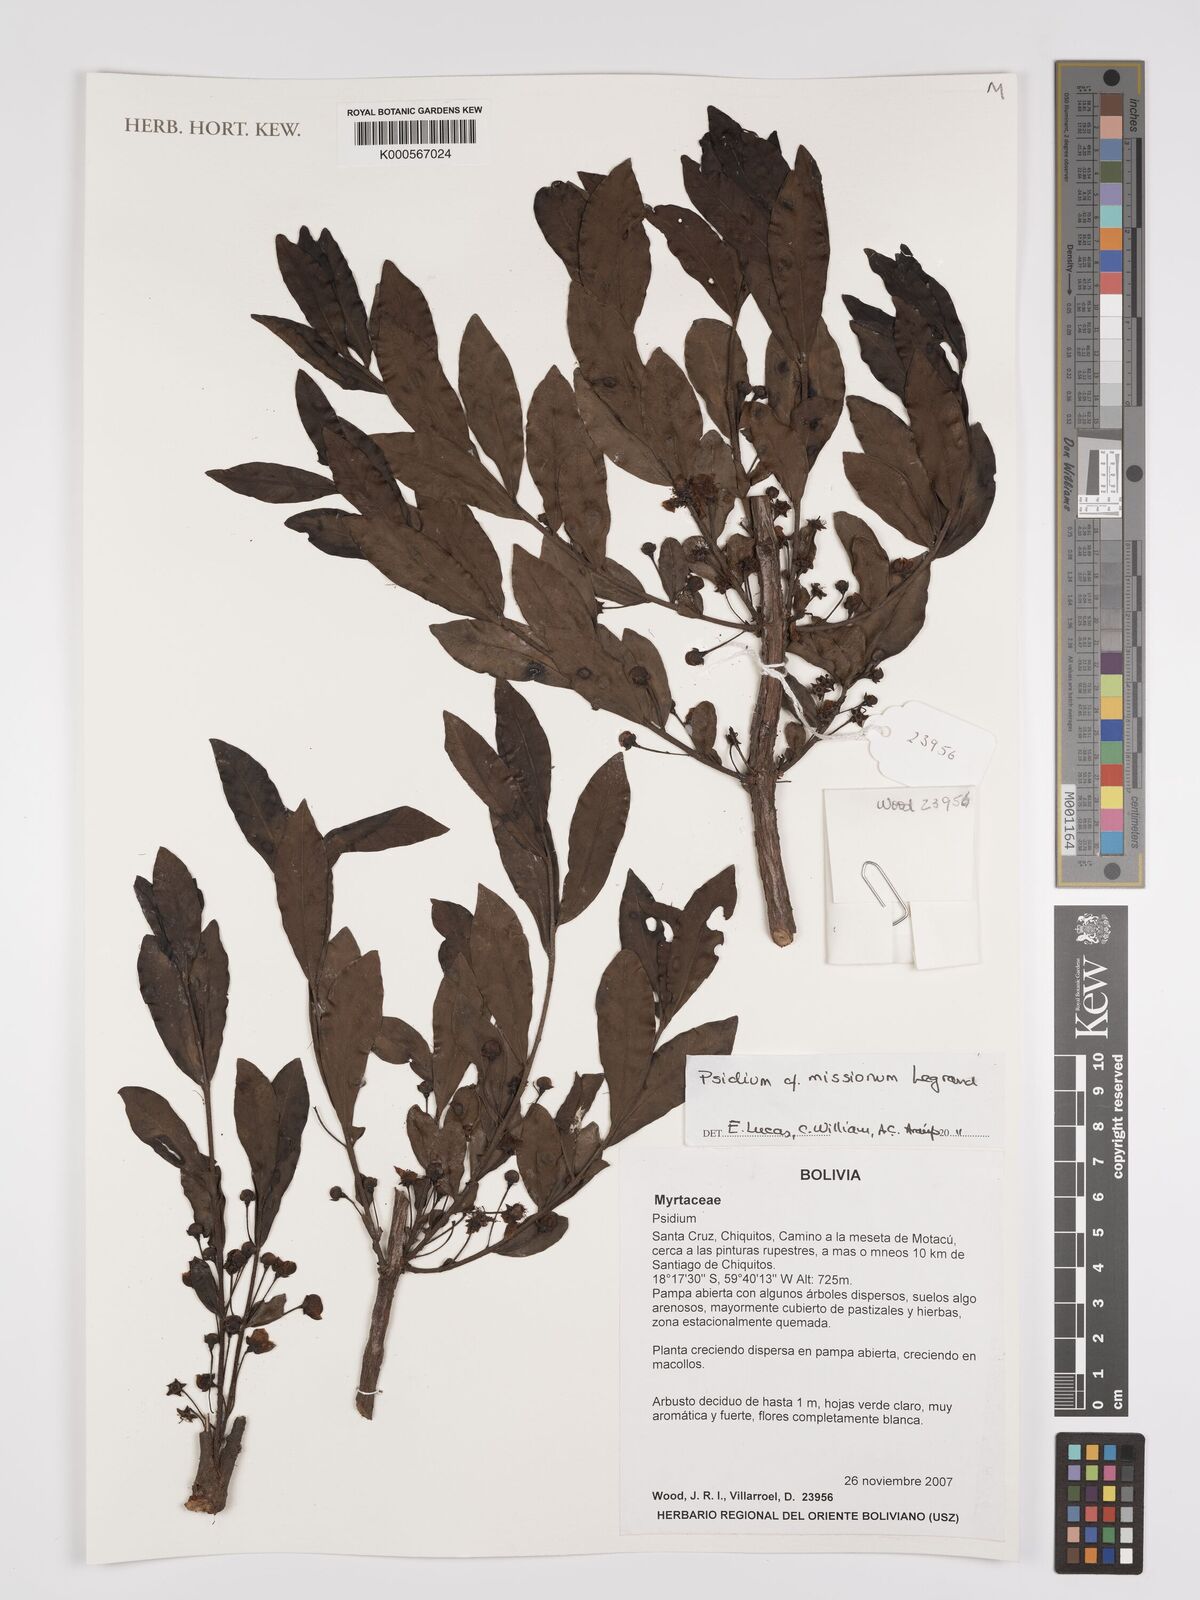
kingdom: Plantae
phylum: Tracheophyta
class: Magnoliopsida
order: Myrtales
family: Myrtaceae
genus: Psidium
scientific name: Psidium
